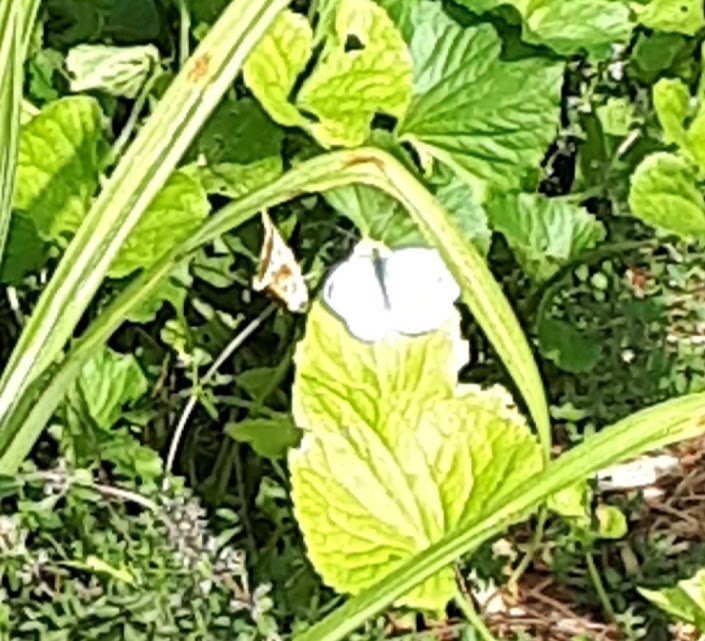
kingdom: Animalia
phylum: Arthropoda
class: Insecta
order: Lepidoptera
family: Pieridae
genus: Pieris
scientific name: Pieris rapae
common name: Cabbage White
